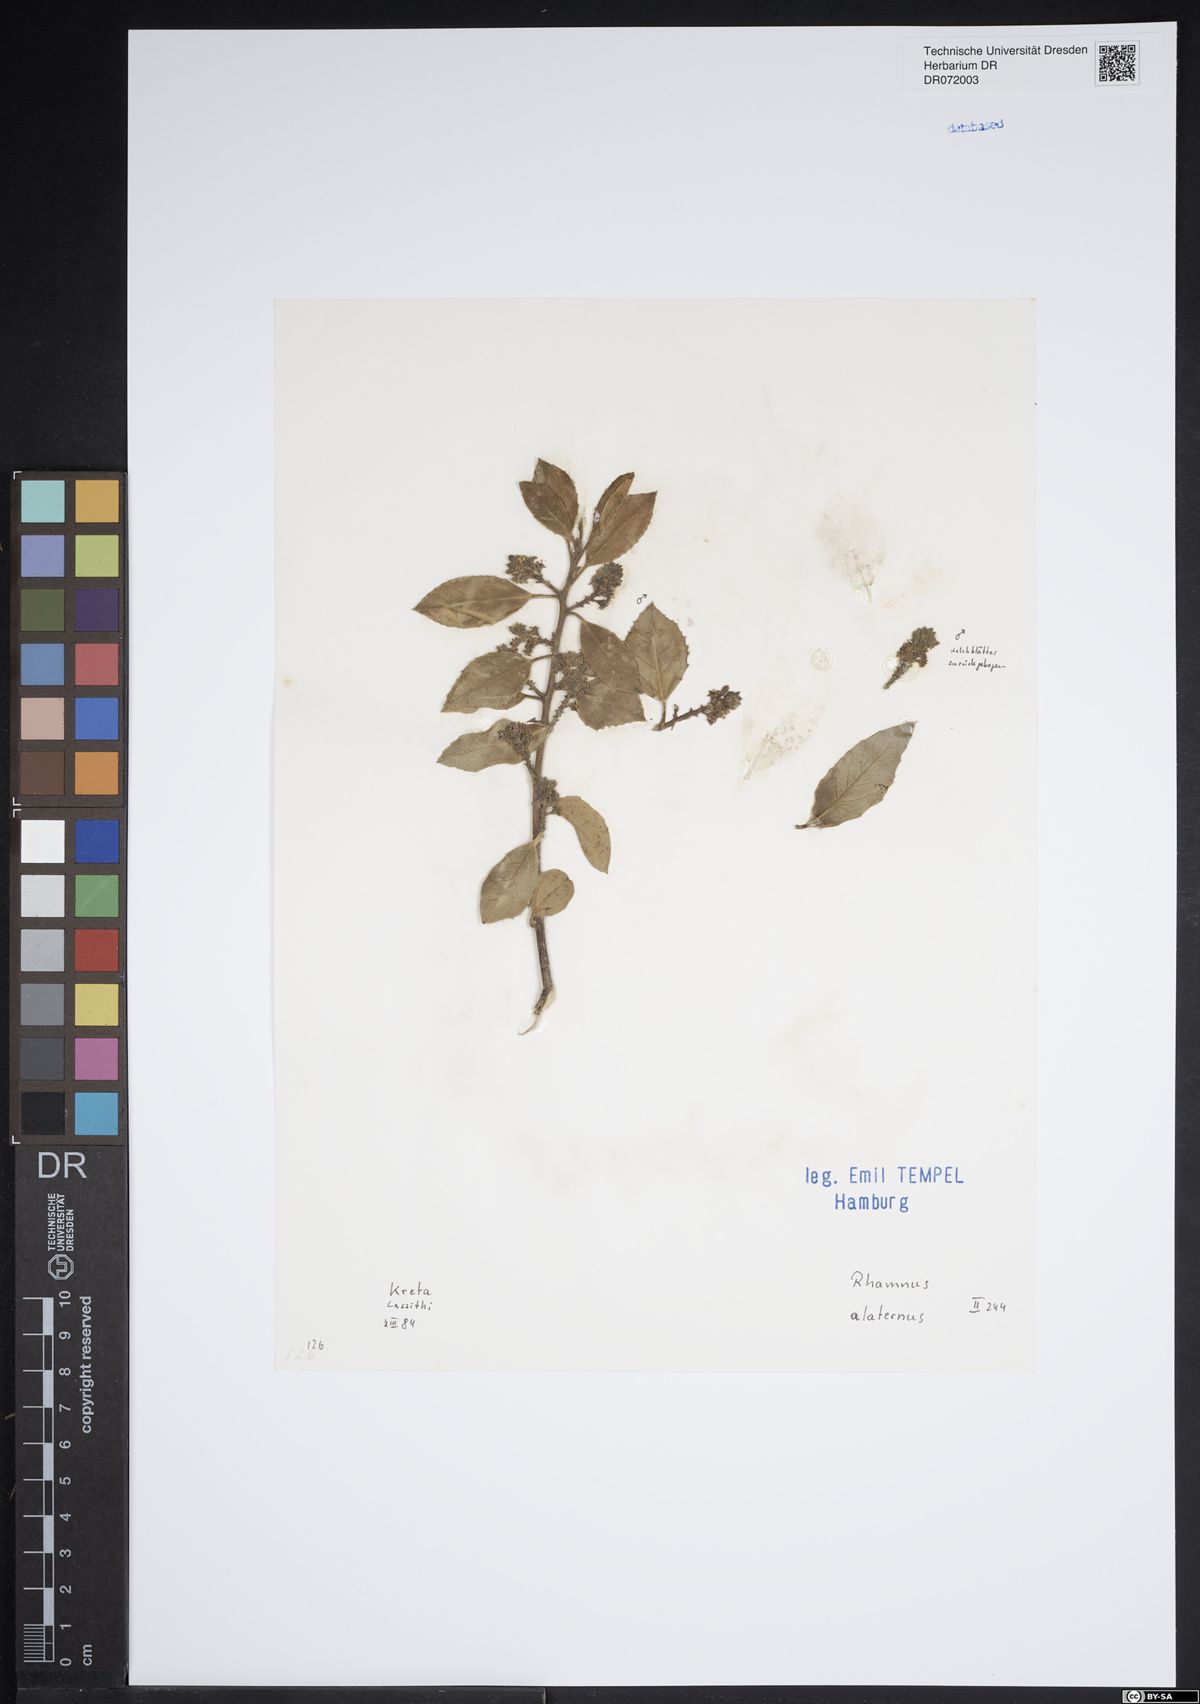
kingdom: Plantae
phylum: Tracheophyta
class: Magnoliopsida
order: Rosales
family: Rhamnaceae
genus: Rhamnus
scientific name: Rhamnus alaternus
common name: Mediterranean buckthorn
